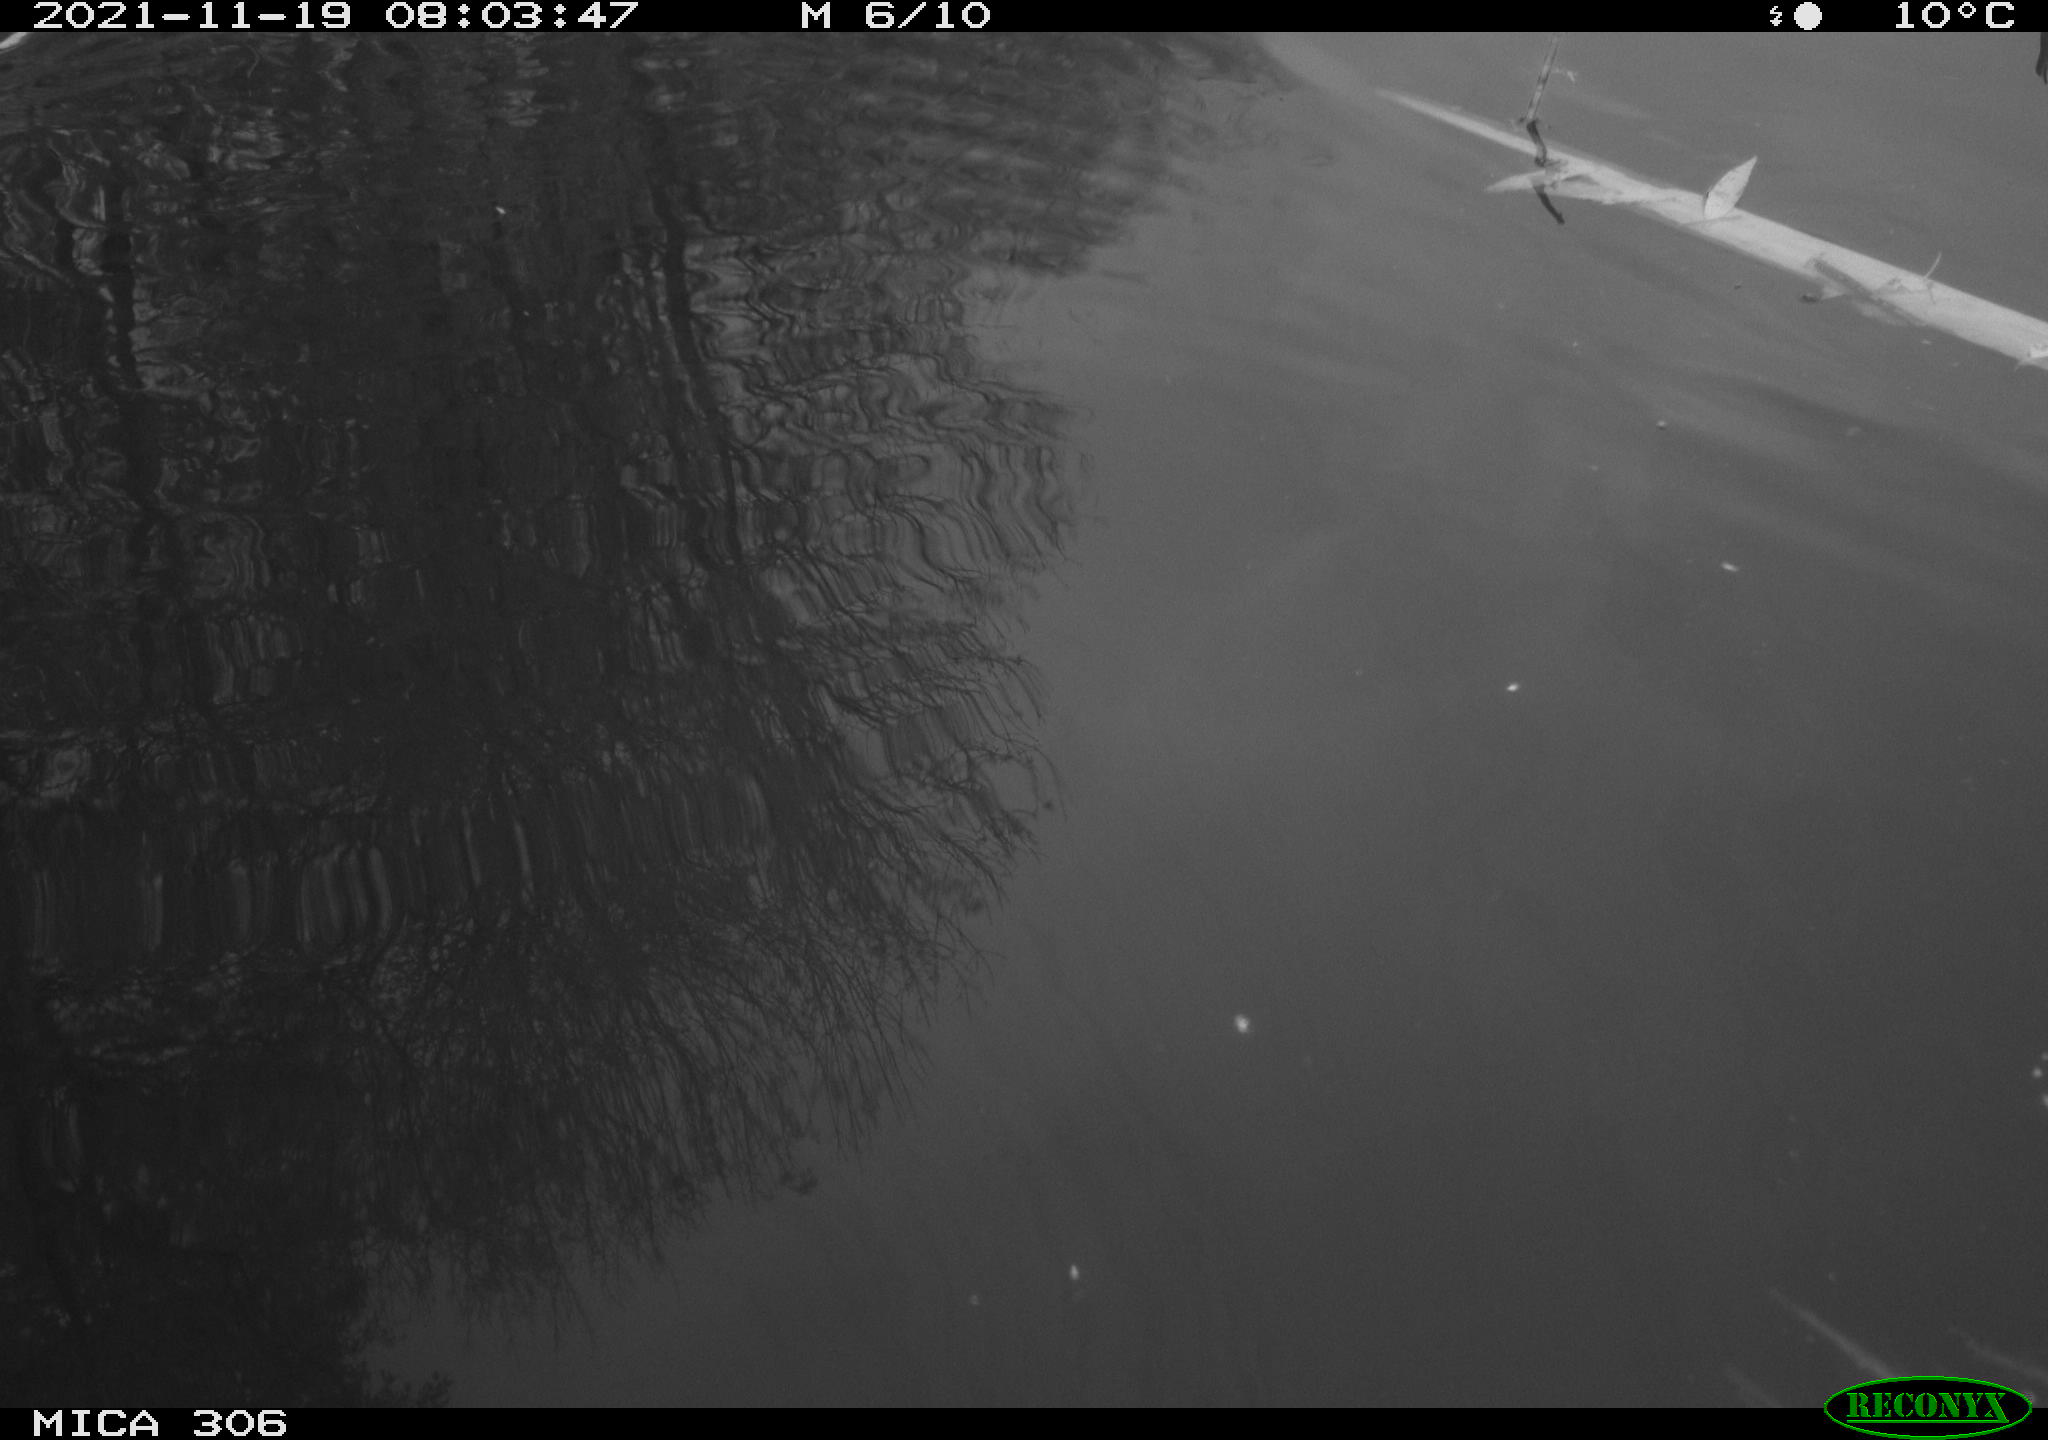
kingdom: Animalia
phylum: Chordata
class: Aves
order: Gruiformes
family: Rallidae
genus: Fulica
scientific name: Fulica atra
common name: Eurasian coot
